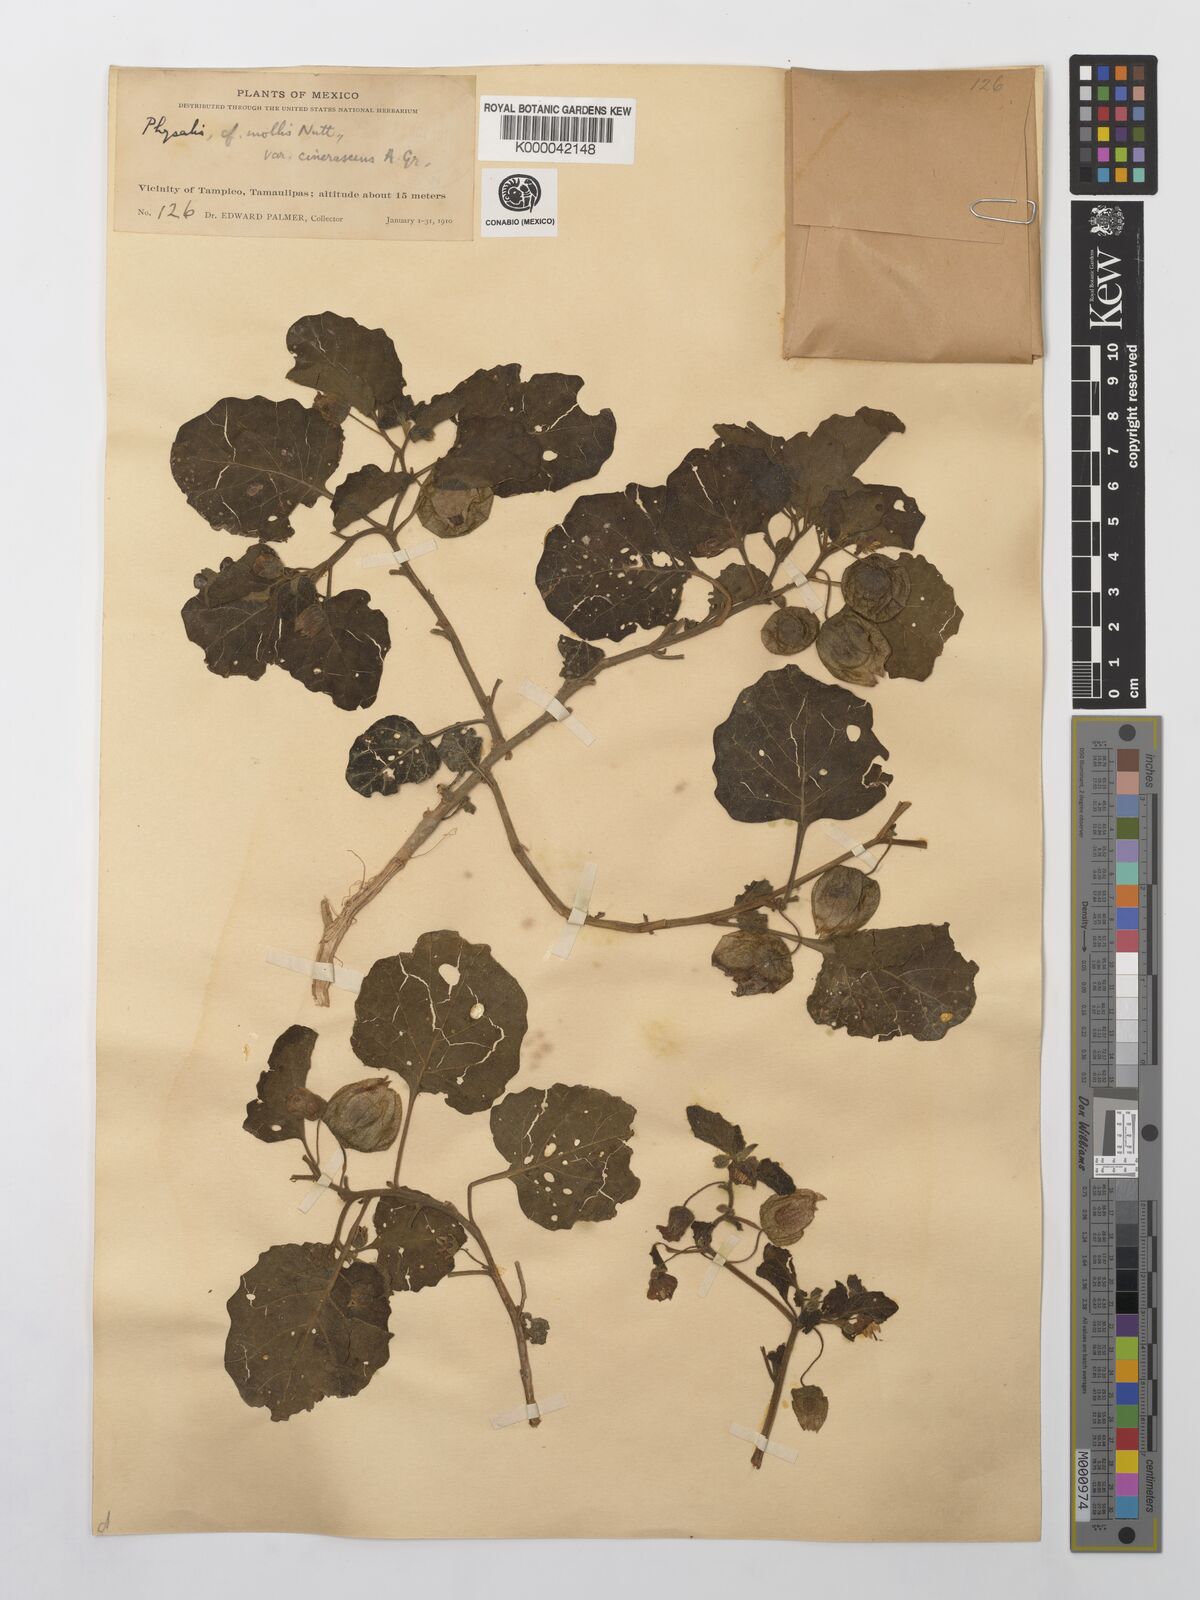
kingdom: Plantae
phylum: Tracheophyta
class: Magnoliopsida
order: Solanales
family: Solanaceae
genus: Physalis
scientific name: Physalis cinerascens
